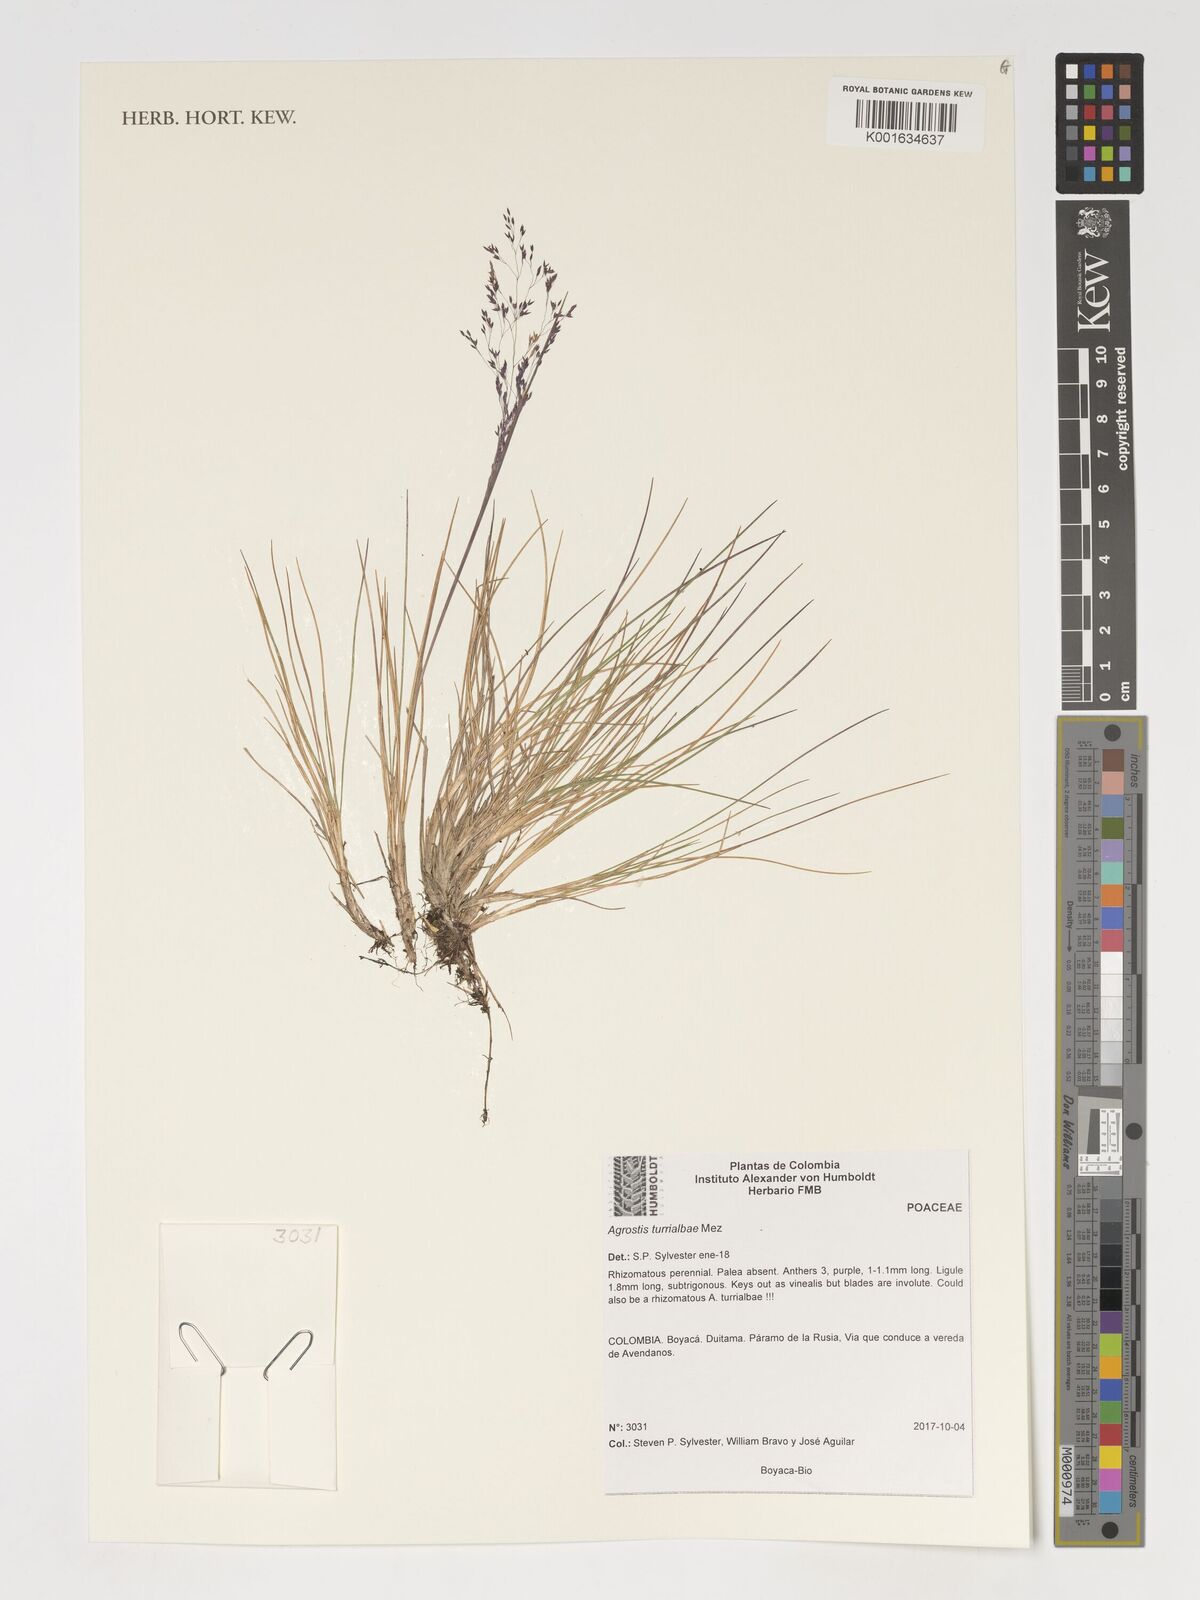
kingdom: Plantae
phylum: Tracheophyta
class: Liliopsida
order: Poales
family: Poaceae
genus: Agrostis
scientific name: Agrostis turrialbae
